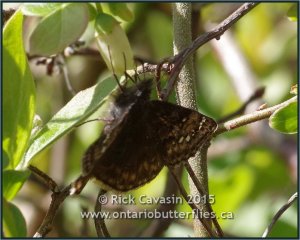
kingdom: Animalia
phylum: Arthropoda
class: Insecta
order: Lepidoptera
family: Hesperiidae
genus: Gesta
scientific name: Gesta
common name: Juvenal's Duskywing
